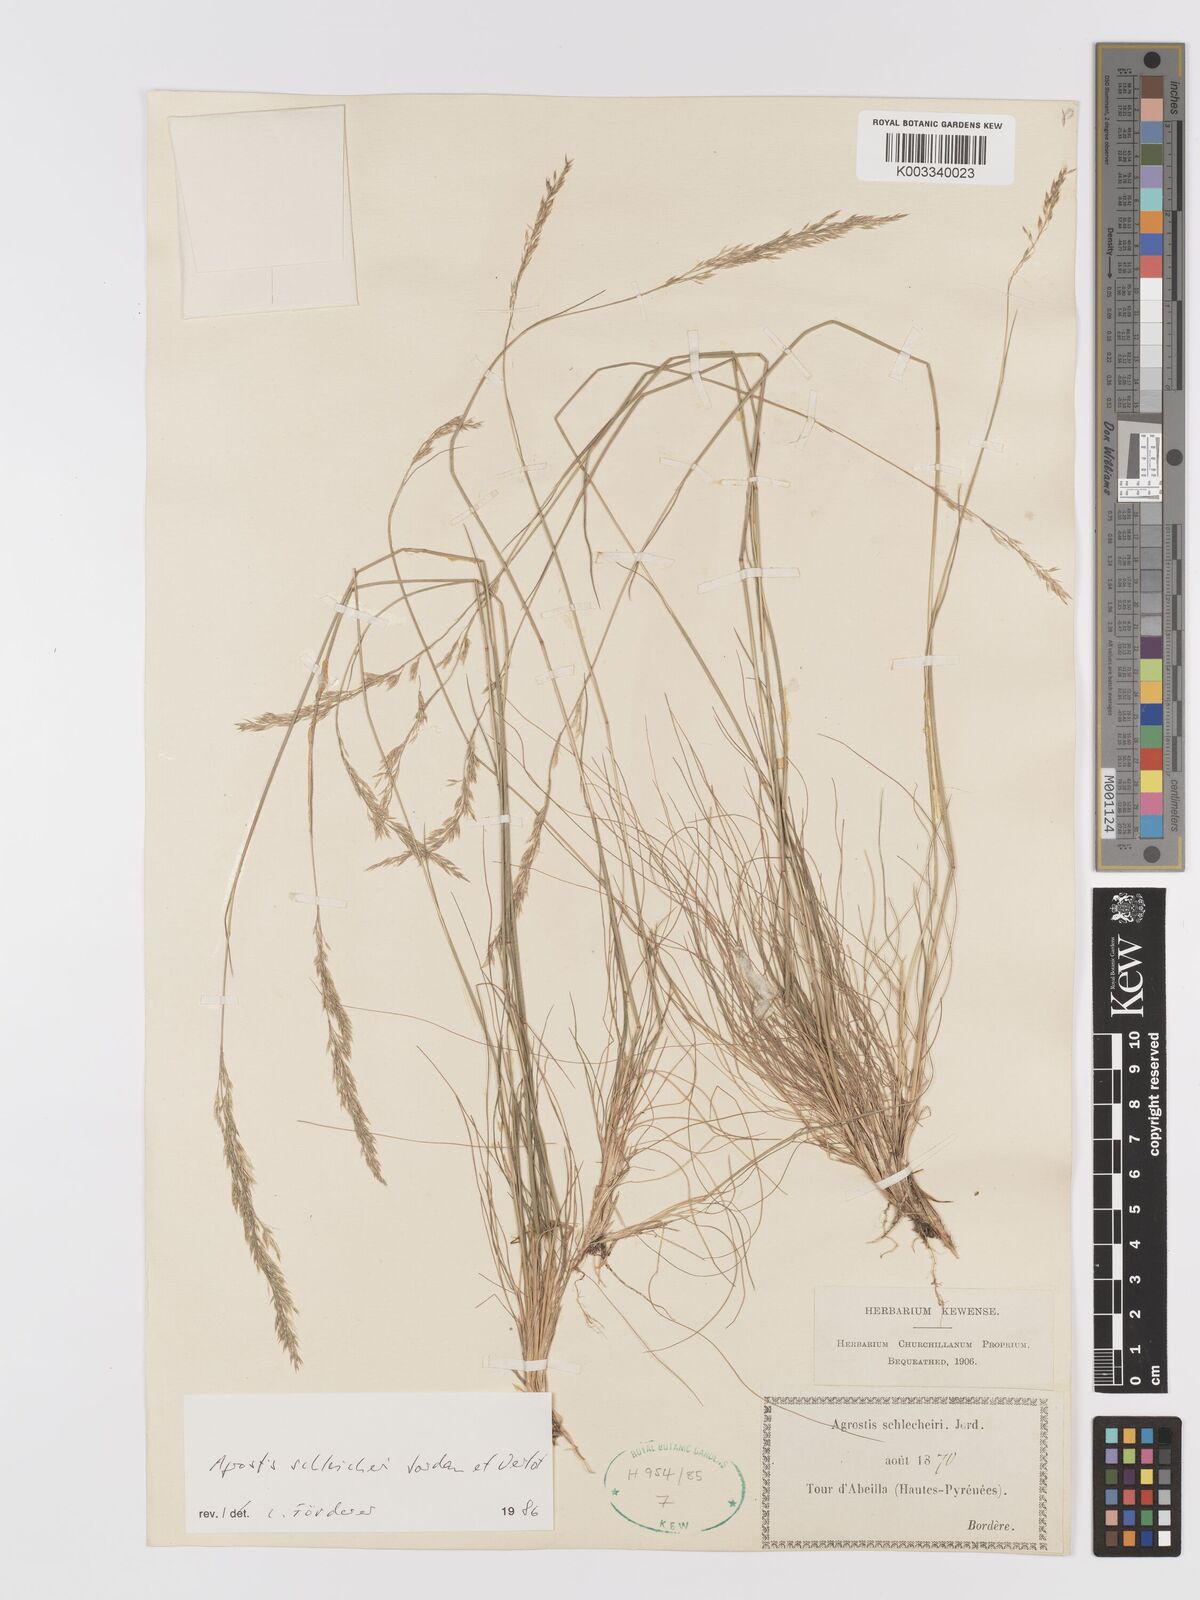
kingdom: Plantae
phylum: Tracheophyta
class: Liliopsida
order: Poales
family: Poaceae
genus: Alpagrostis
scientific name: Alpagrostis schleicheri
